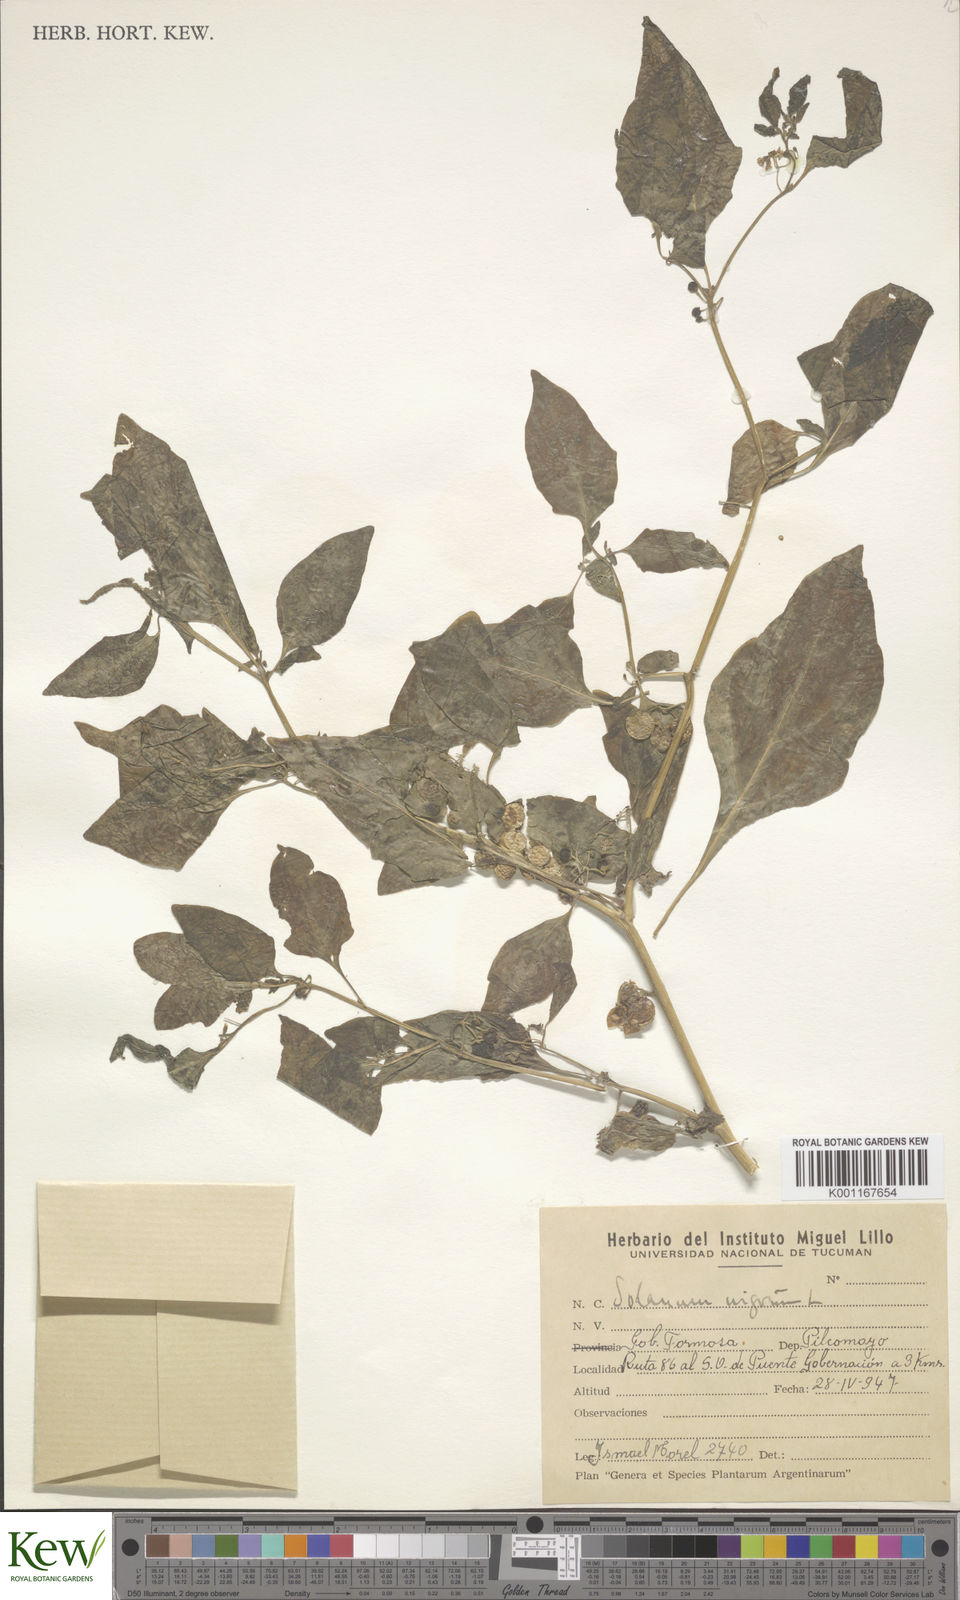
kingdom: Plantae
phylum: Tracheophyta
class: Magnoliopsida
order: Solanales
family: Solanaceae
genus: Solanum
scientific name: Solanum americanum
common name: American black nightshade
